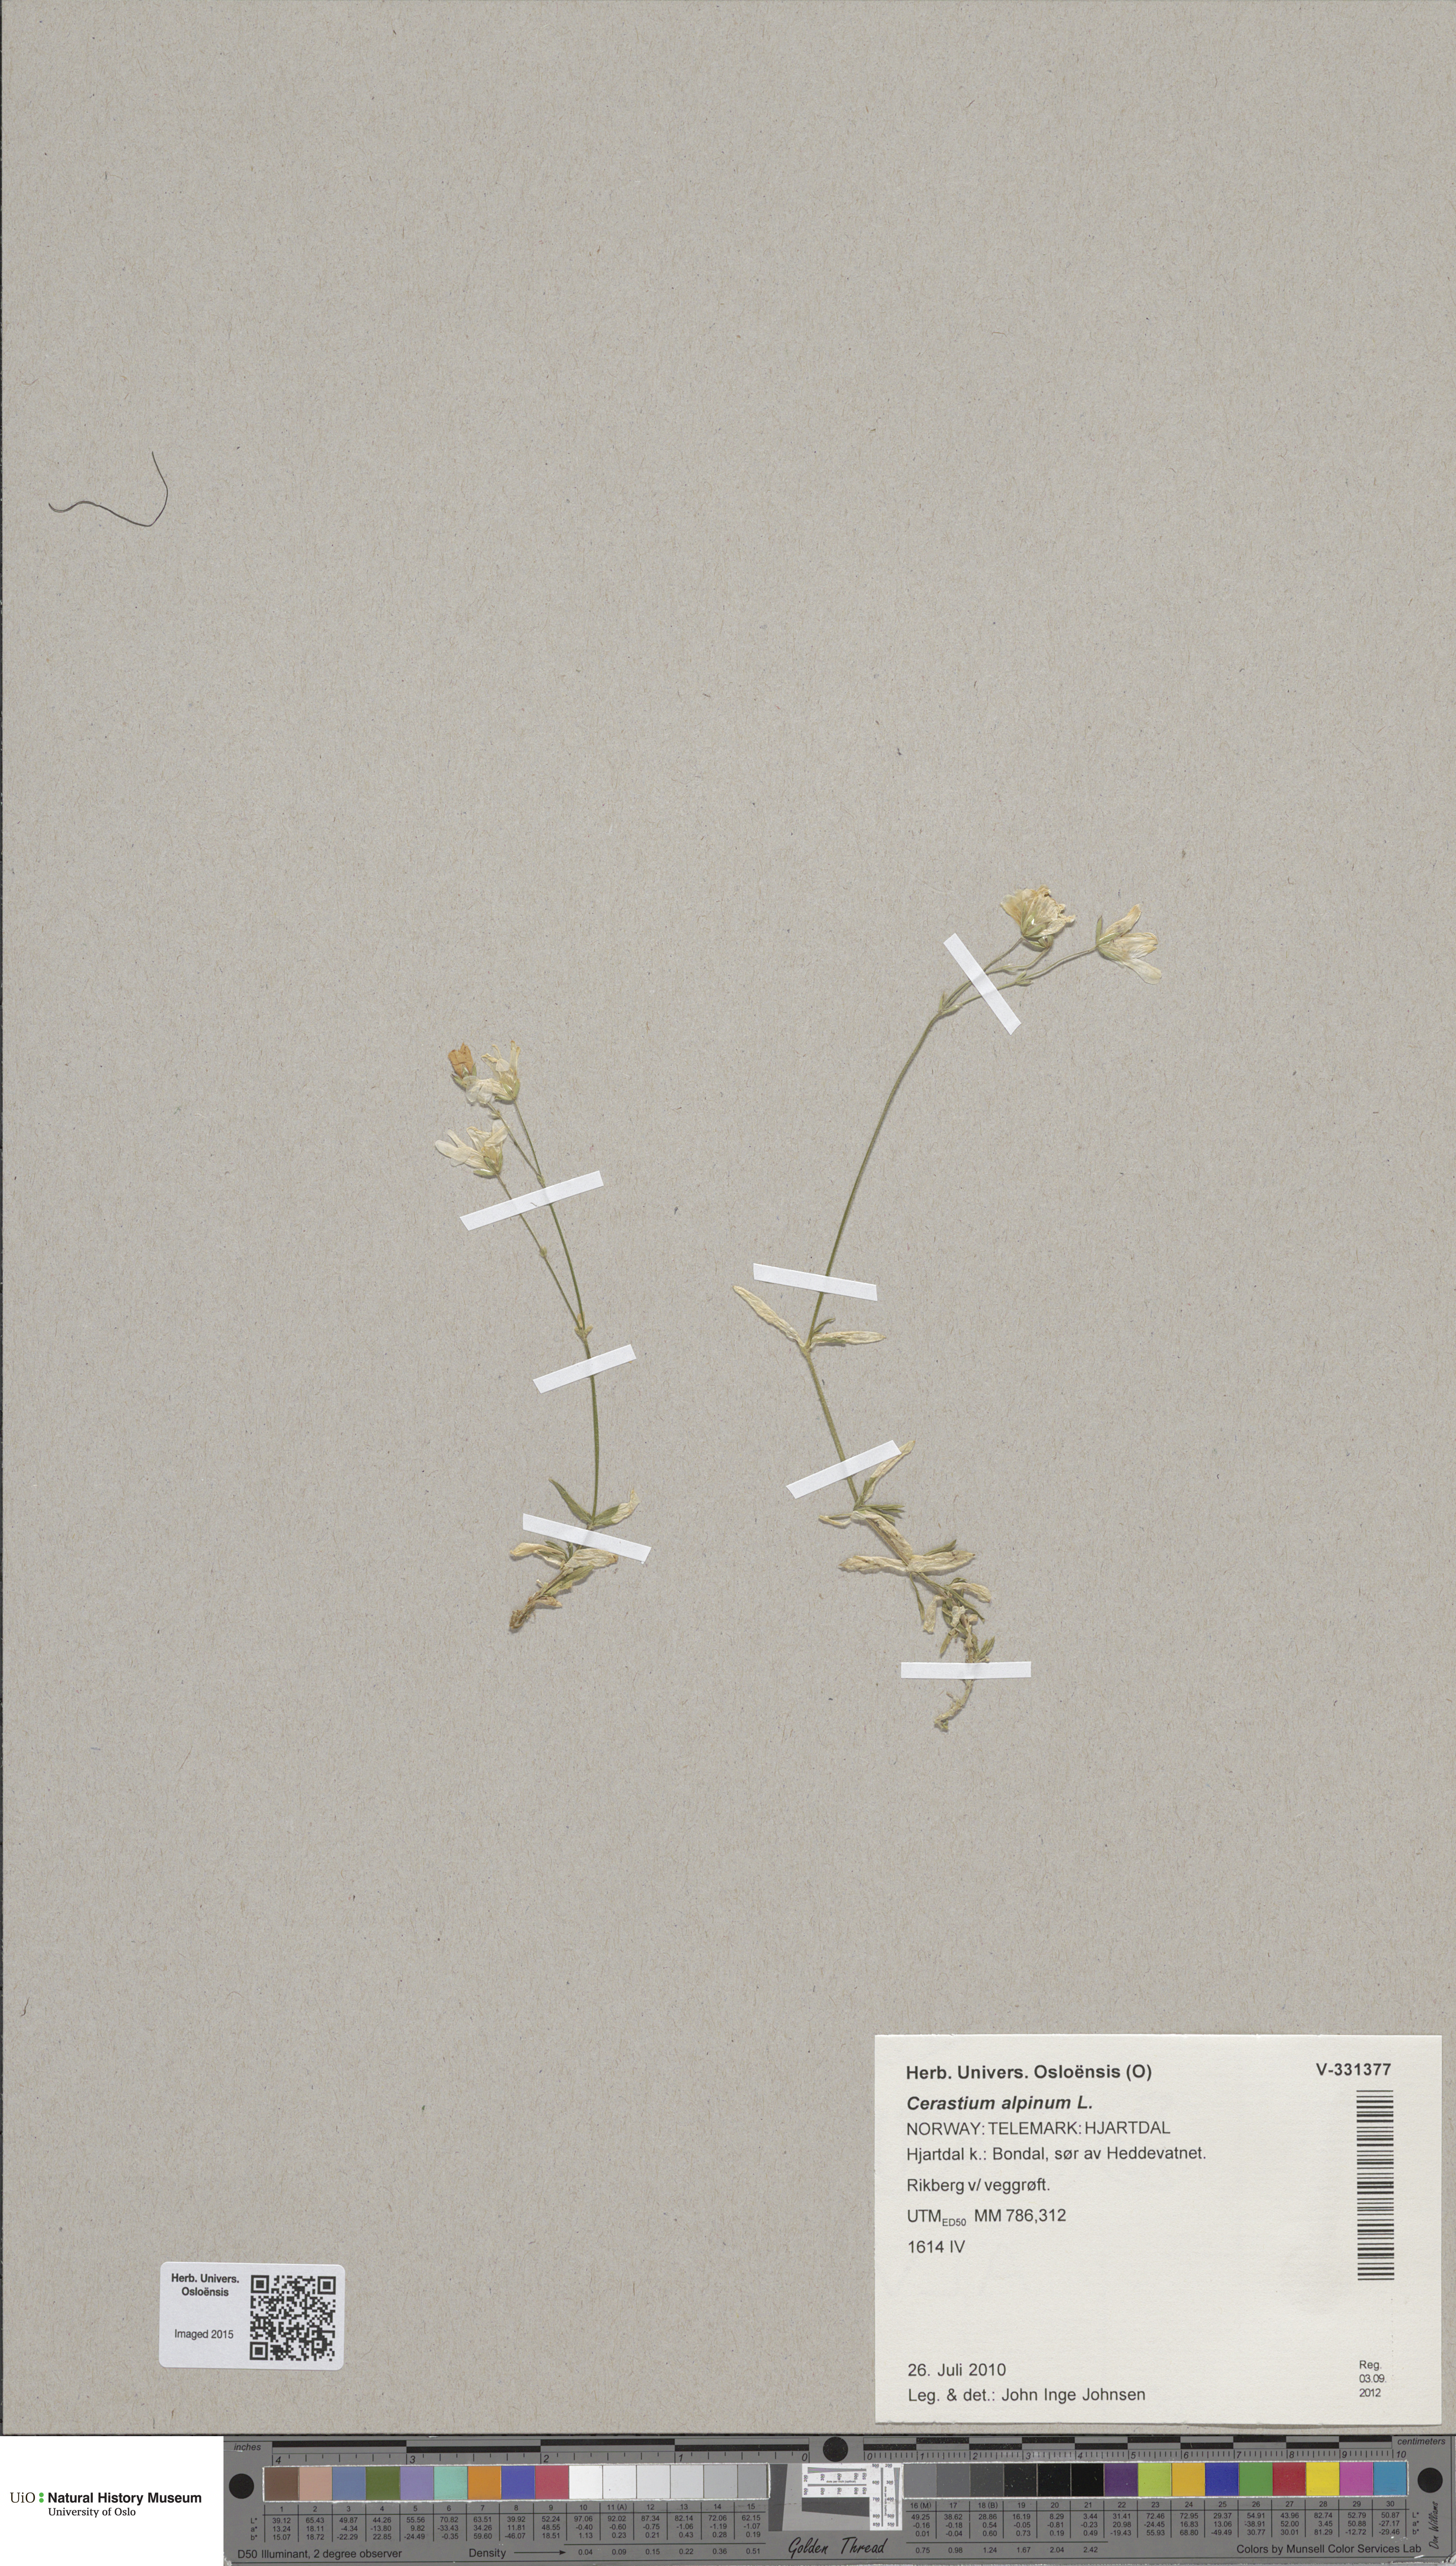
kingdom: Plantae
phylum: Tracheophyta
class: Magnoliopsida
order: Caryophyllales
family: Caryophyllaceae
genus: Cerastium
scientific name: Cerastium alpinum
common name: Alpine mouse-ear
